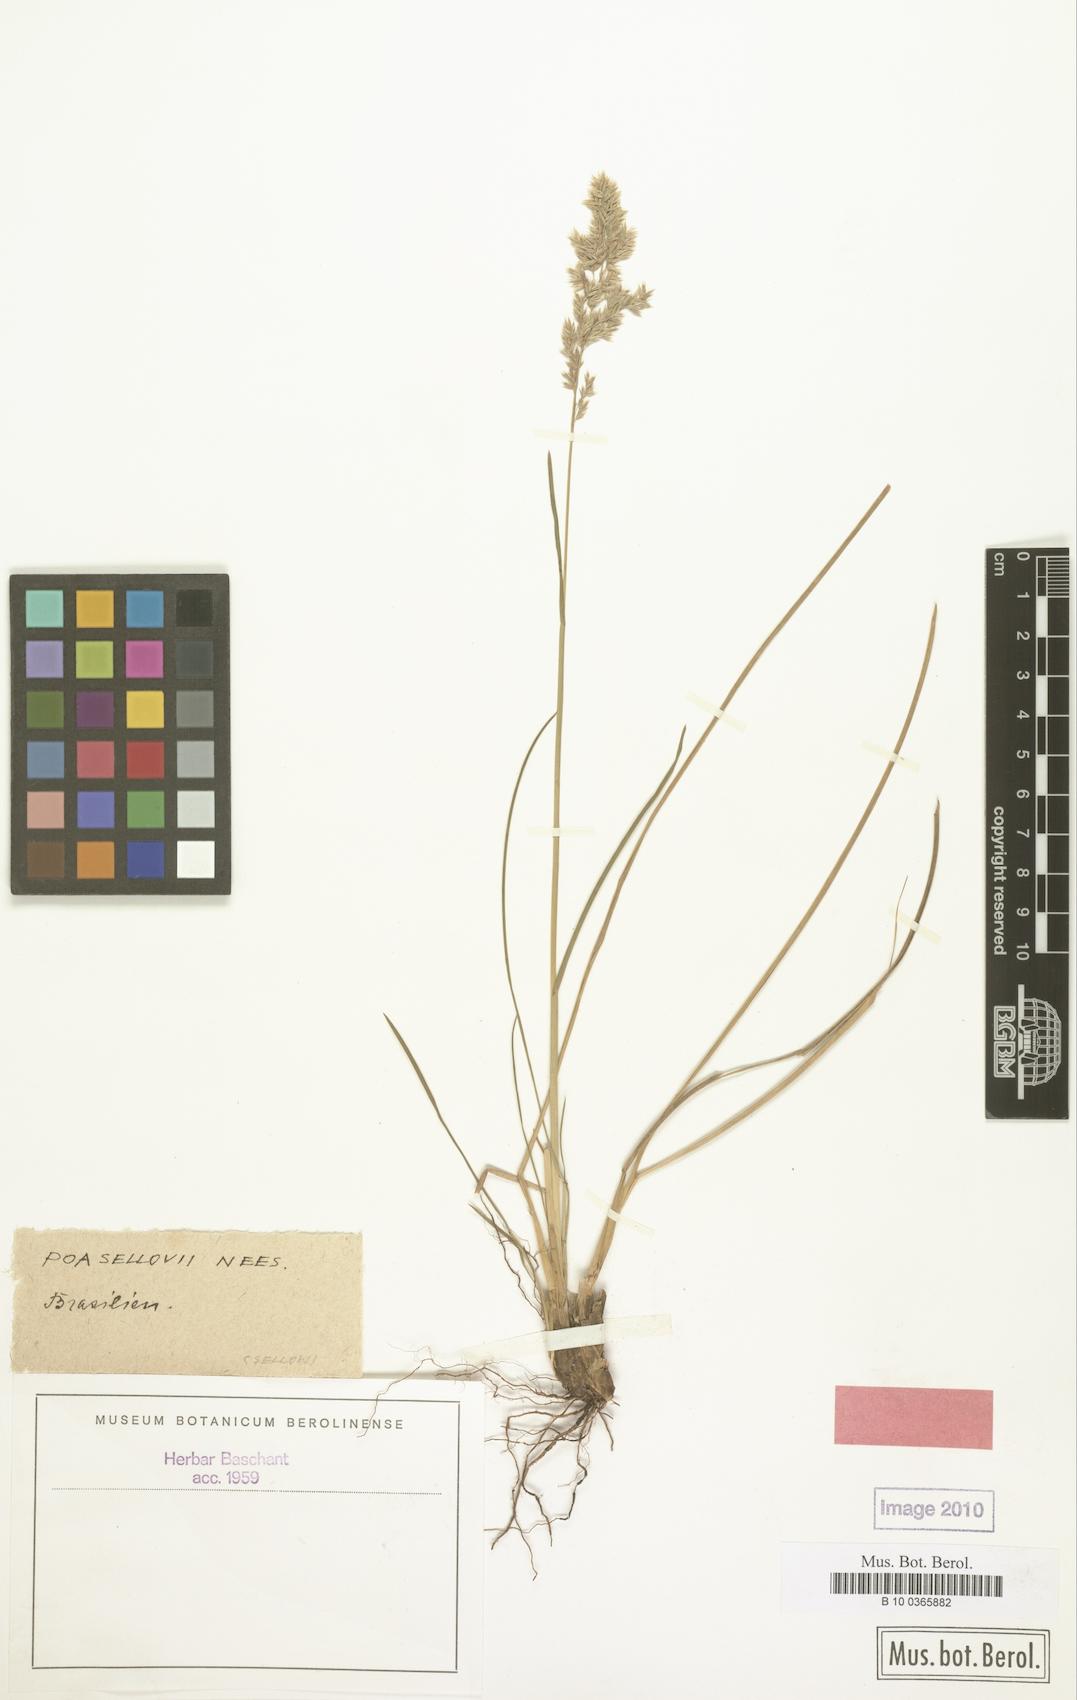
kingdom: Plantae
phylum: Tracheophyta
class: Liliopsida
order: Poales
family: Poaceae
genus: Poa
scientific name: Poa sellowii
